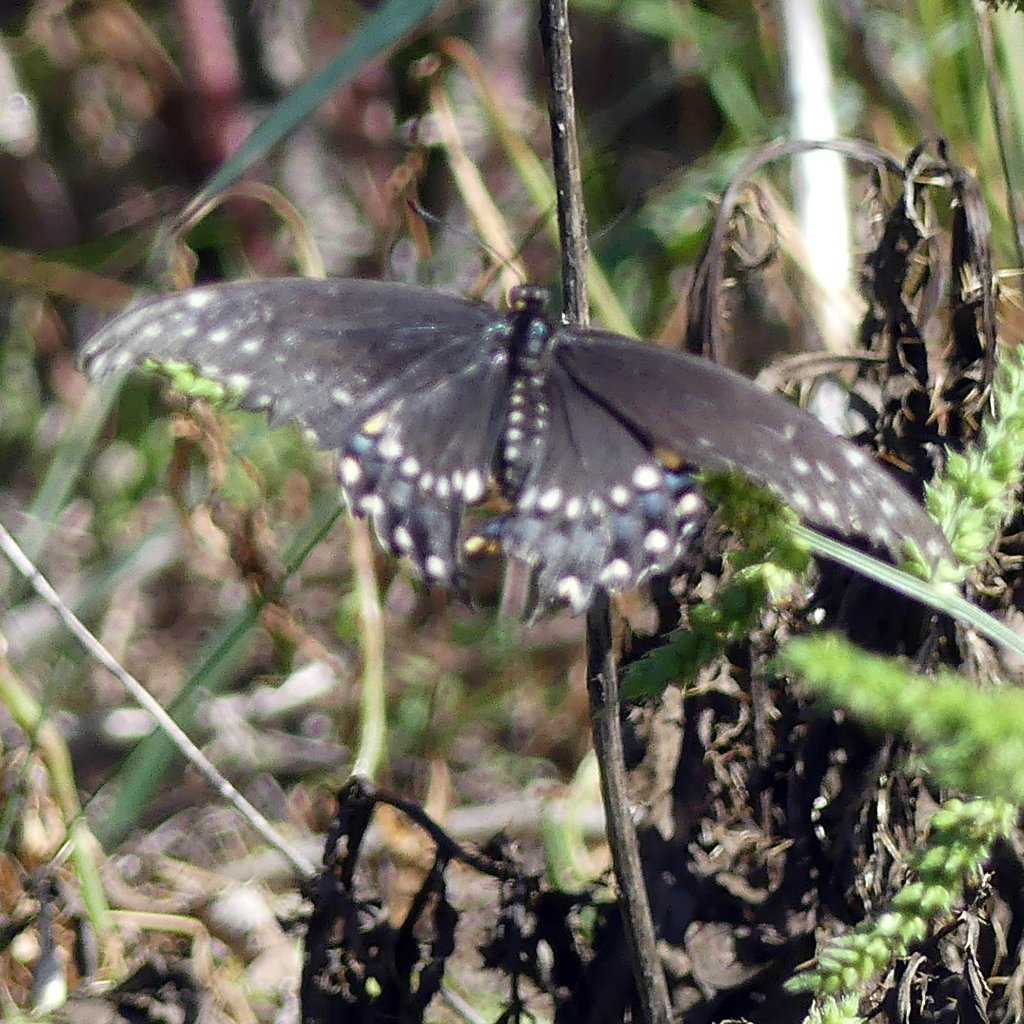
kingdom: Animalia
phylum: Arthropoda
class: Insecta
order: Lepidoptera
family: Papilionidae
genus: Papilio
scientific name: Papilio polyxenes
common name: Black Swallowtail
